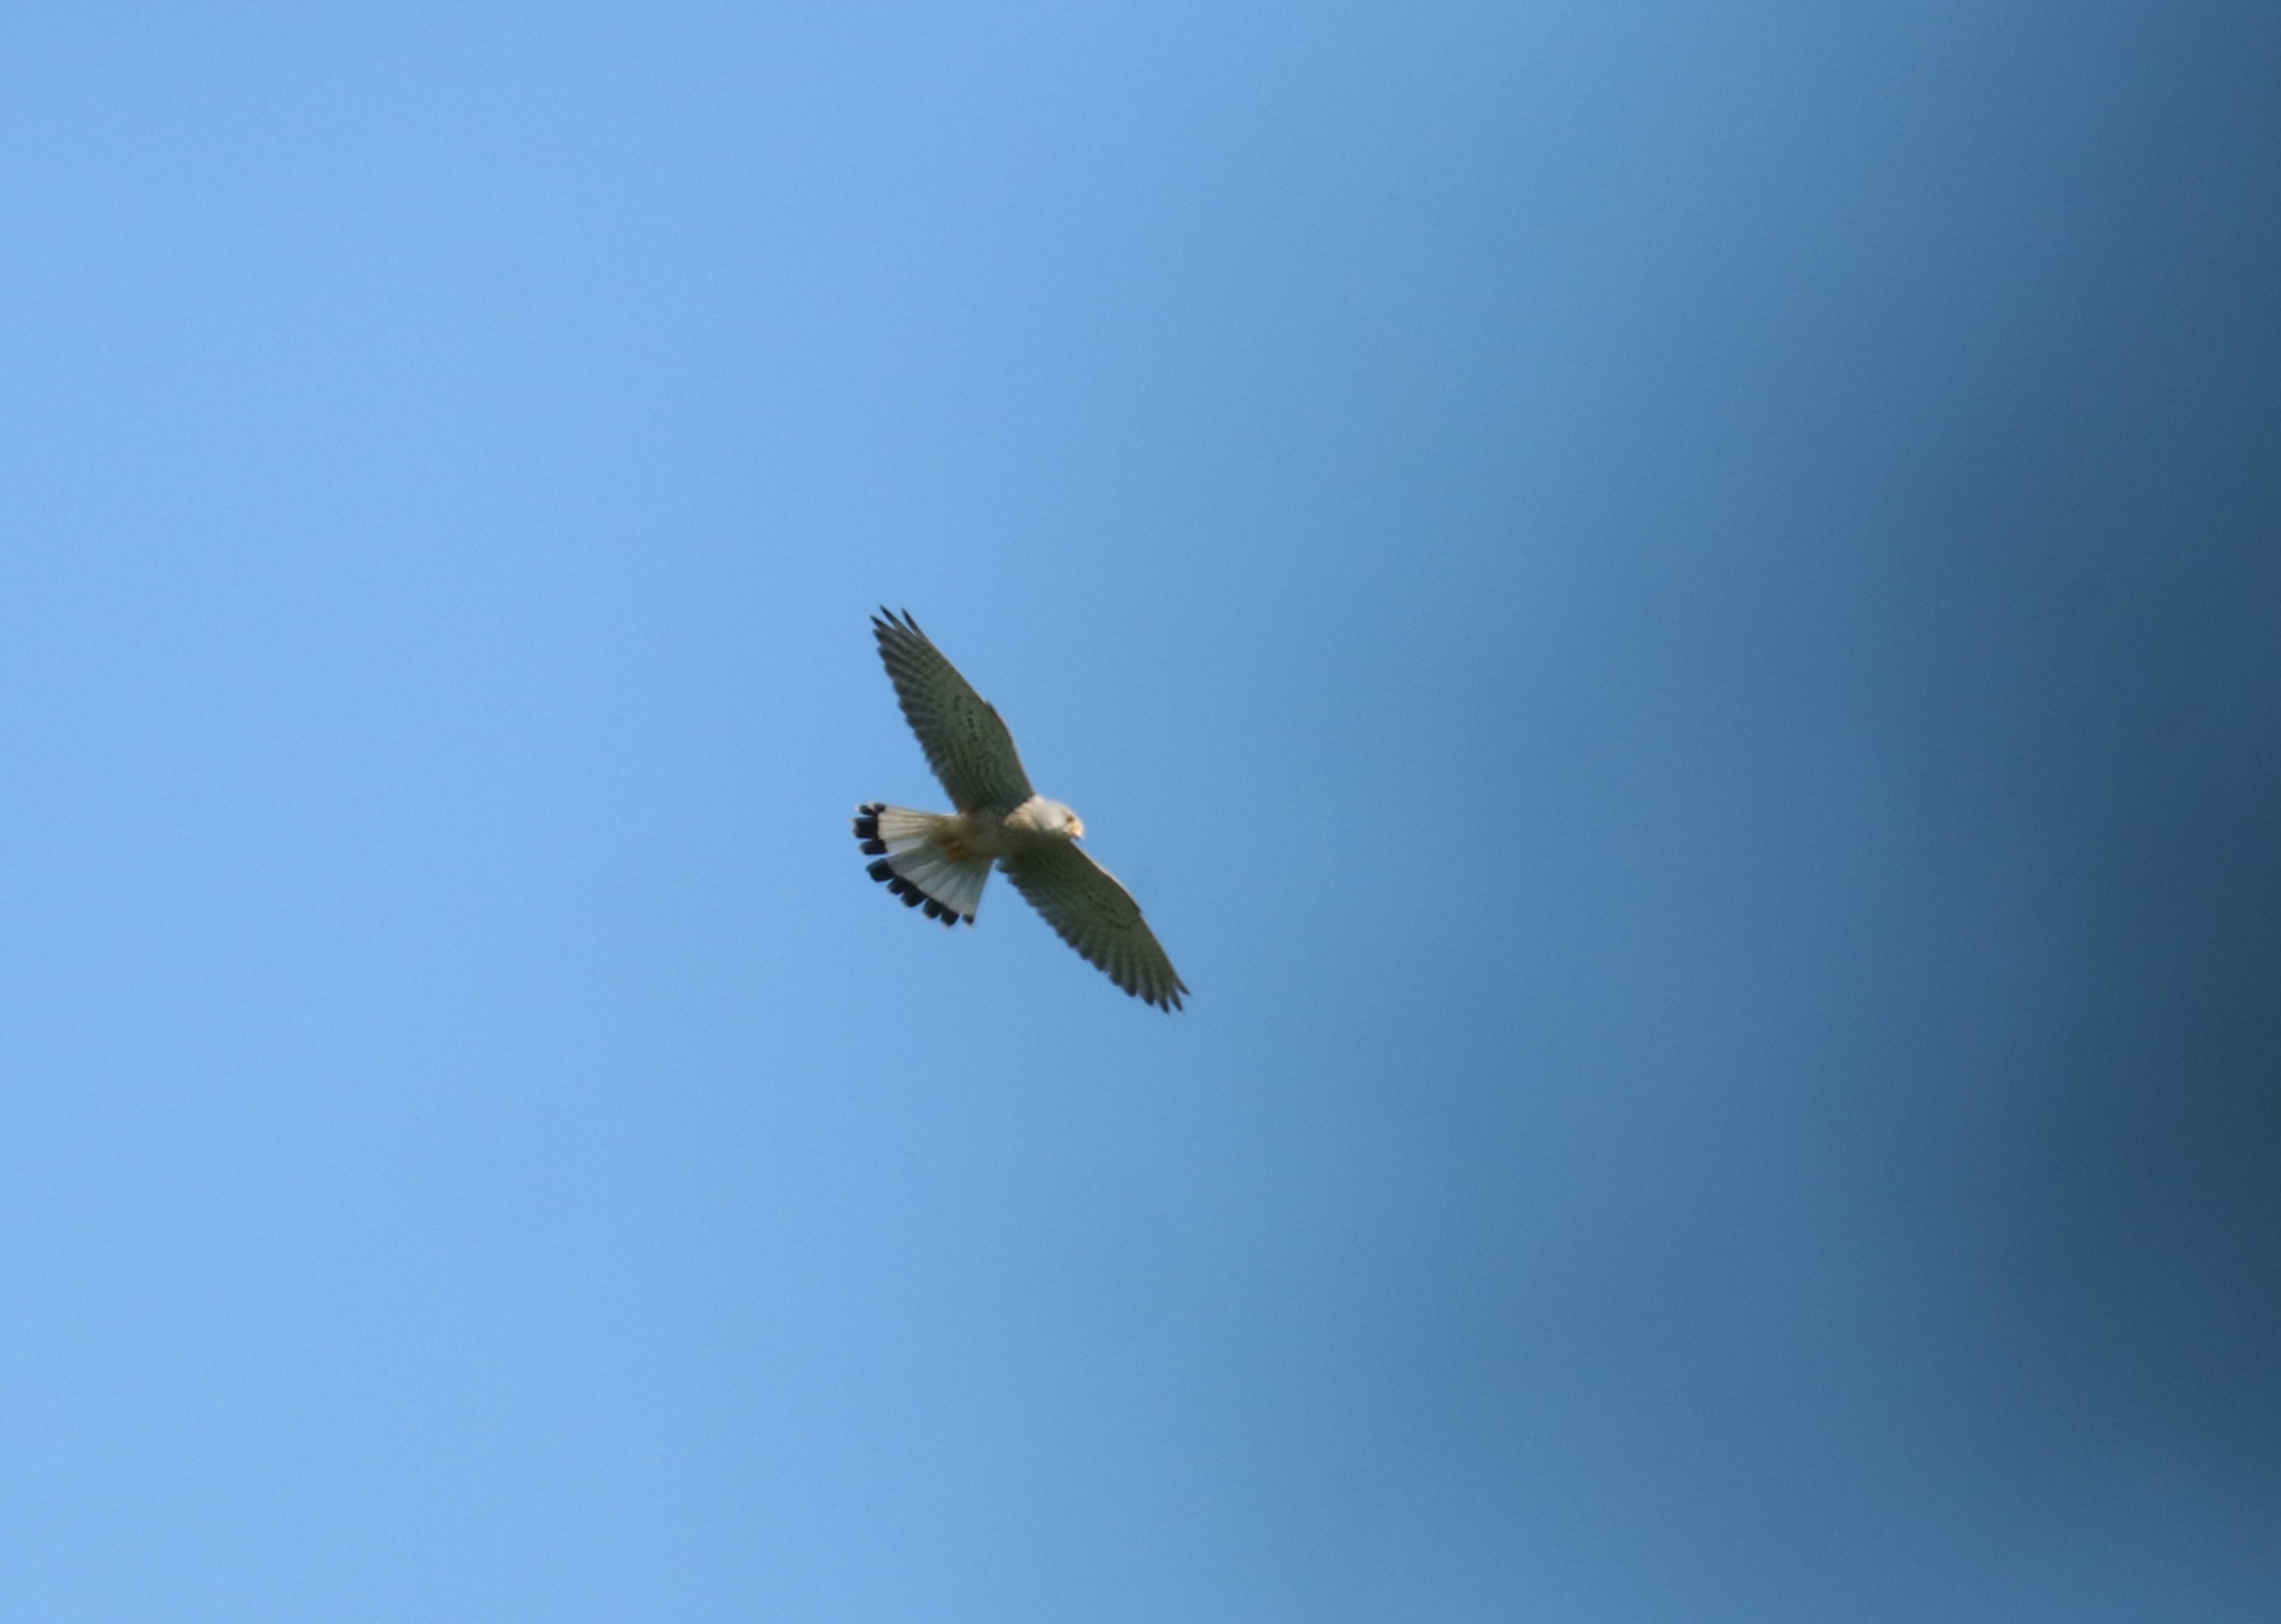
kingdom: Animalia
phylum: Chordata
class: Aves
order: Falconiformes
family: Falconidae
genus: Falco
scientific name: Falco tinnunculus
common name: Tårnfalk
